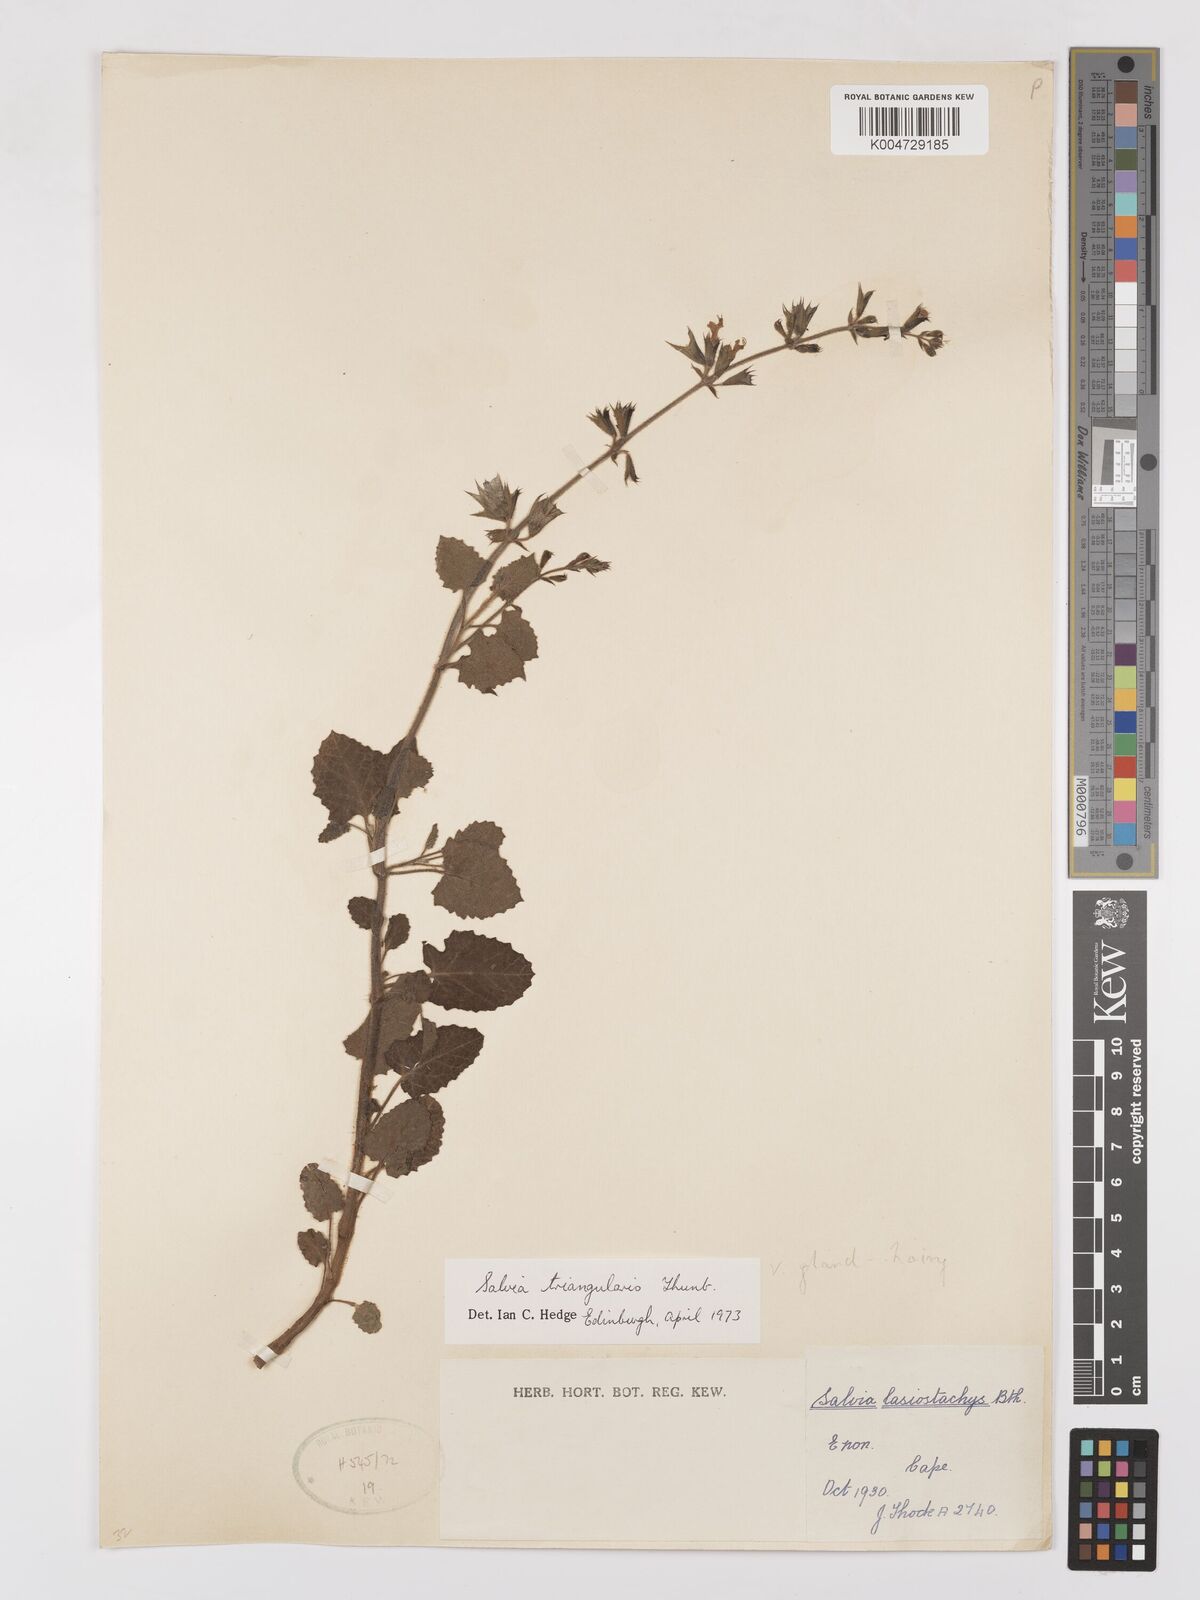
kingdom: Plantae
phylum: Tracheophyta
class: Magnoliopsida
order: Lamiales
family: Lamiaceae
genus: Salvia
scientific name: Salvia triangularis
